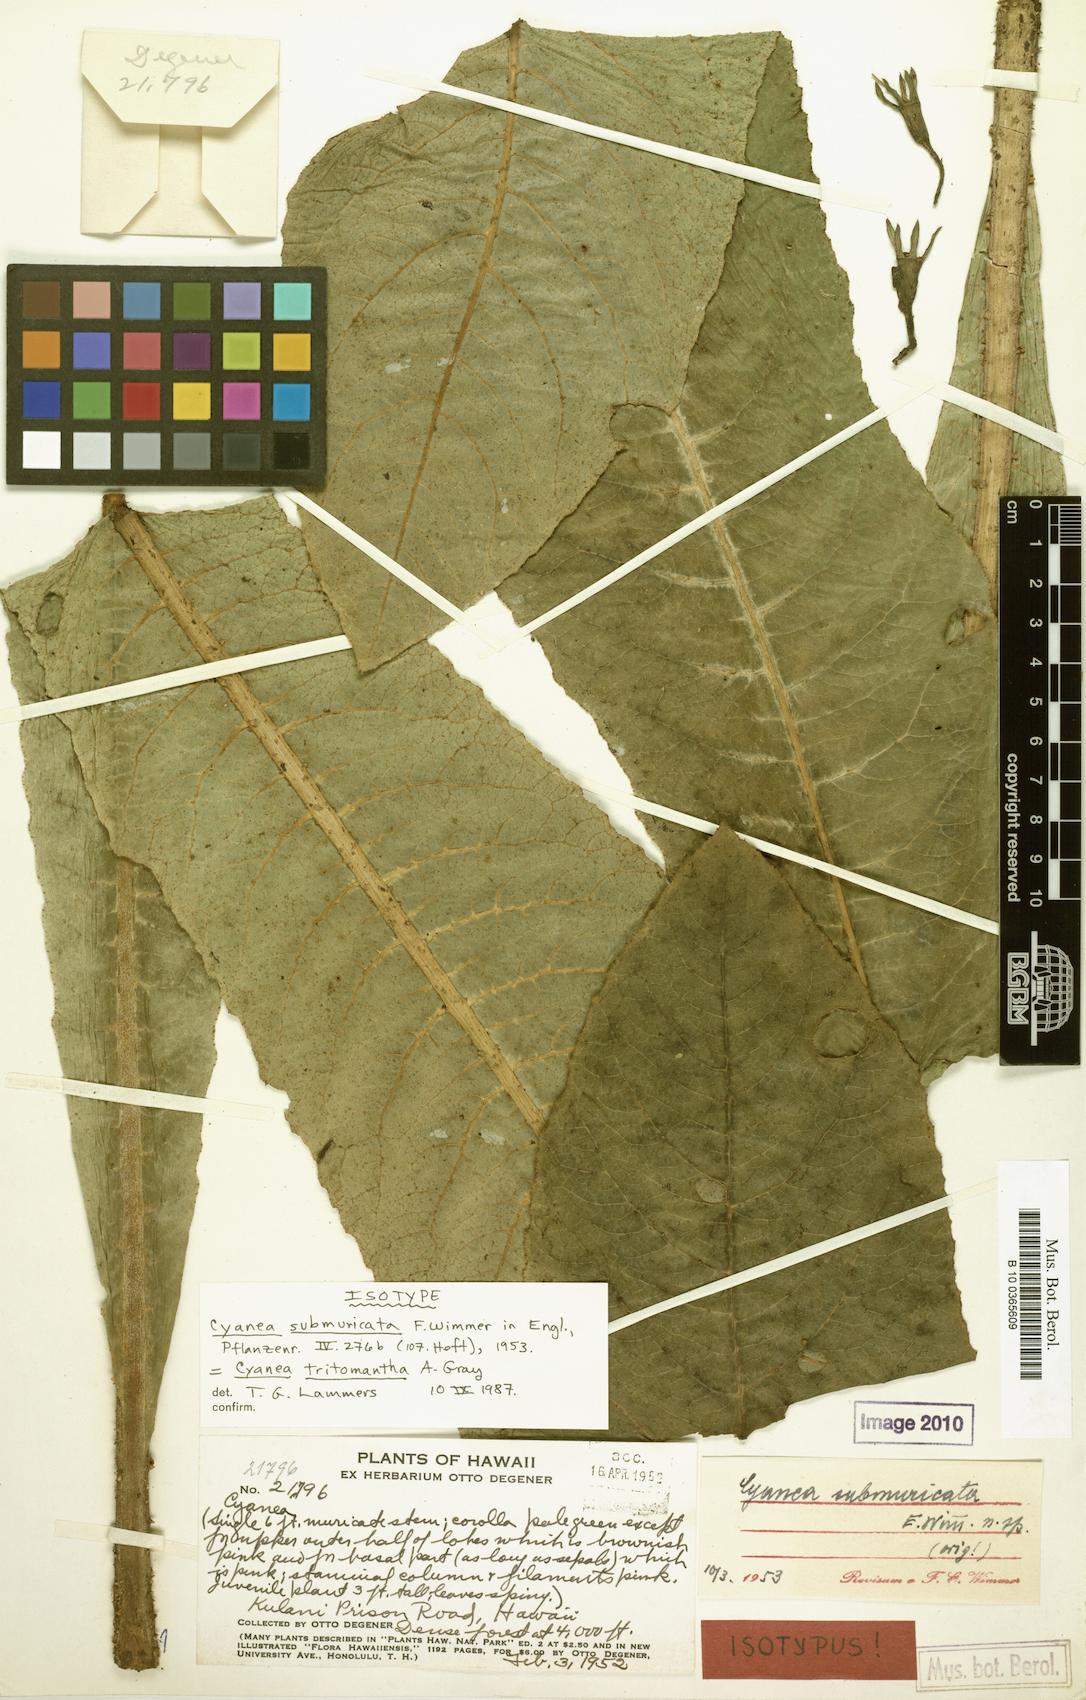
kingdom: Plantae
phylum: Tracheophyta
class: Magnoliopsida
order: Asterales
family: Campanulaceae
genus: Cyanea
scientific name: Cyanea tritomantha
